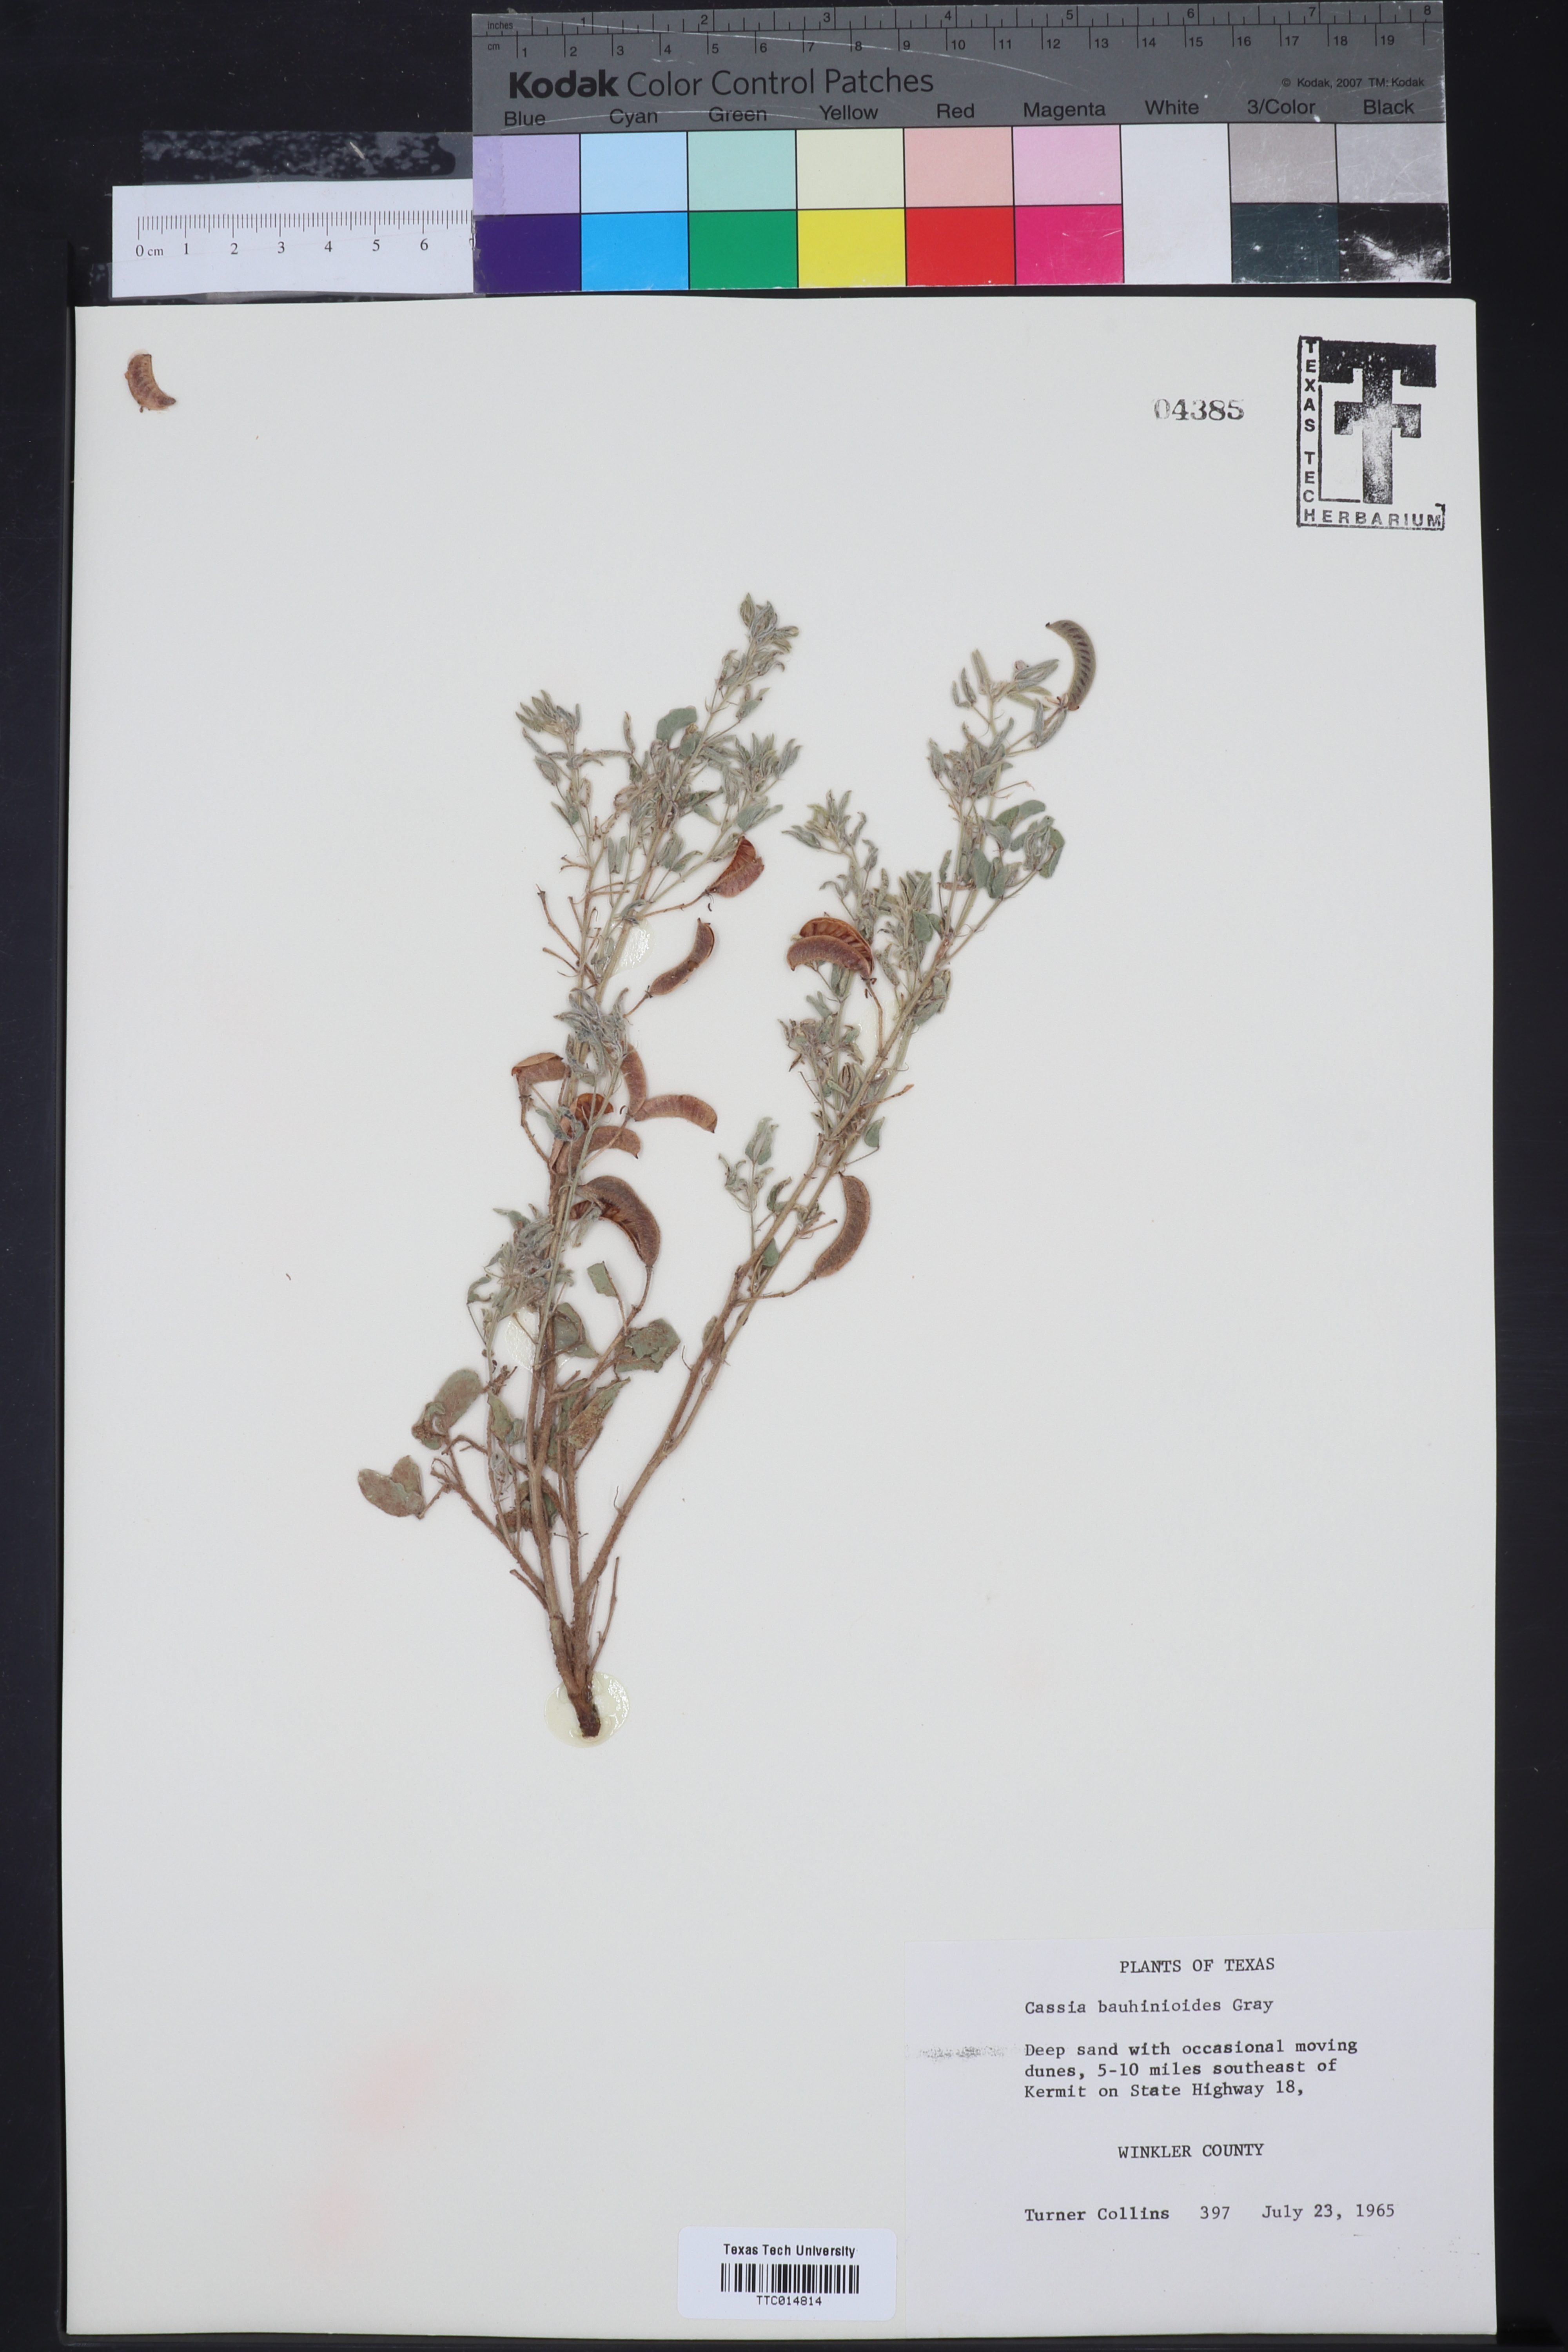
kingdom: Plantae
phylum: Tracheophyta
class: Magnoliopsida
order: Fabales
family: Fabaceae
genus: Senna
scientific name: Senna bauhinioides
